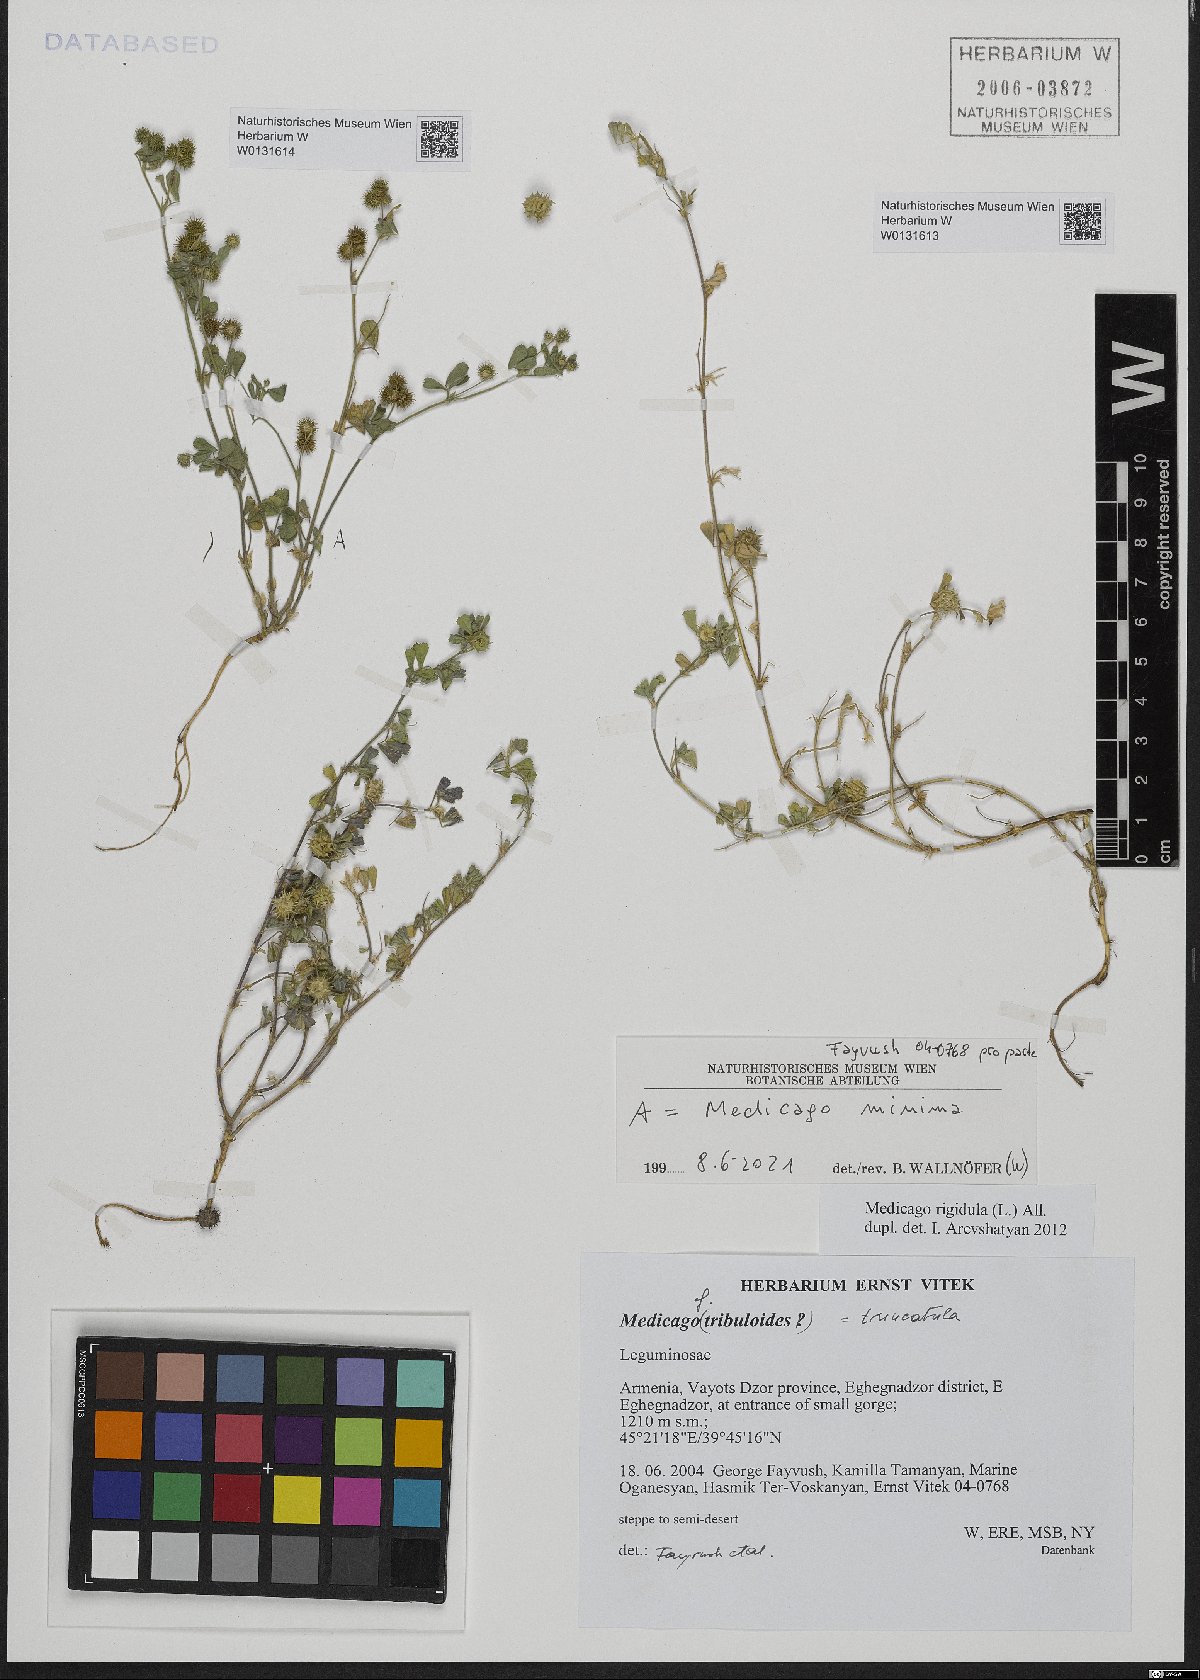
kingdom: Plantae
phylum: Tracheophyta
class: Magnoliopsida
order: Fabales
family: Fabaceae
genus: Medicago
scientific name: Medicago rigidula
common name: Tifton medic
